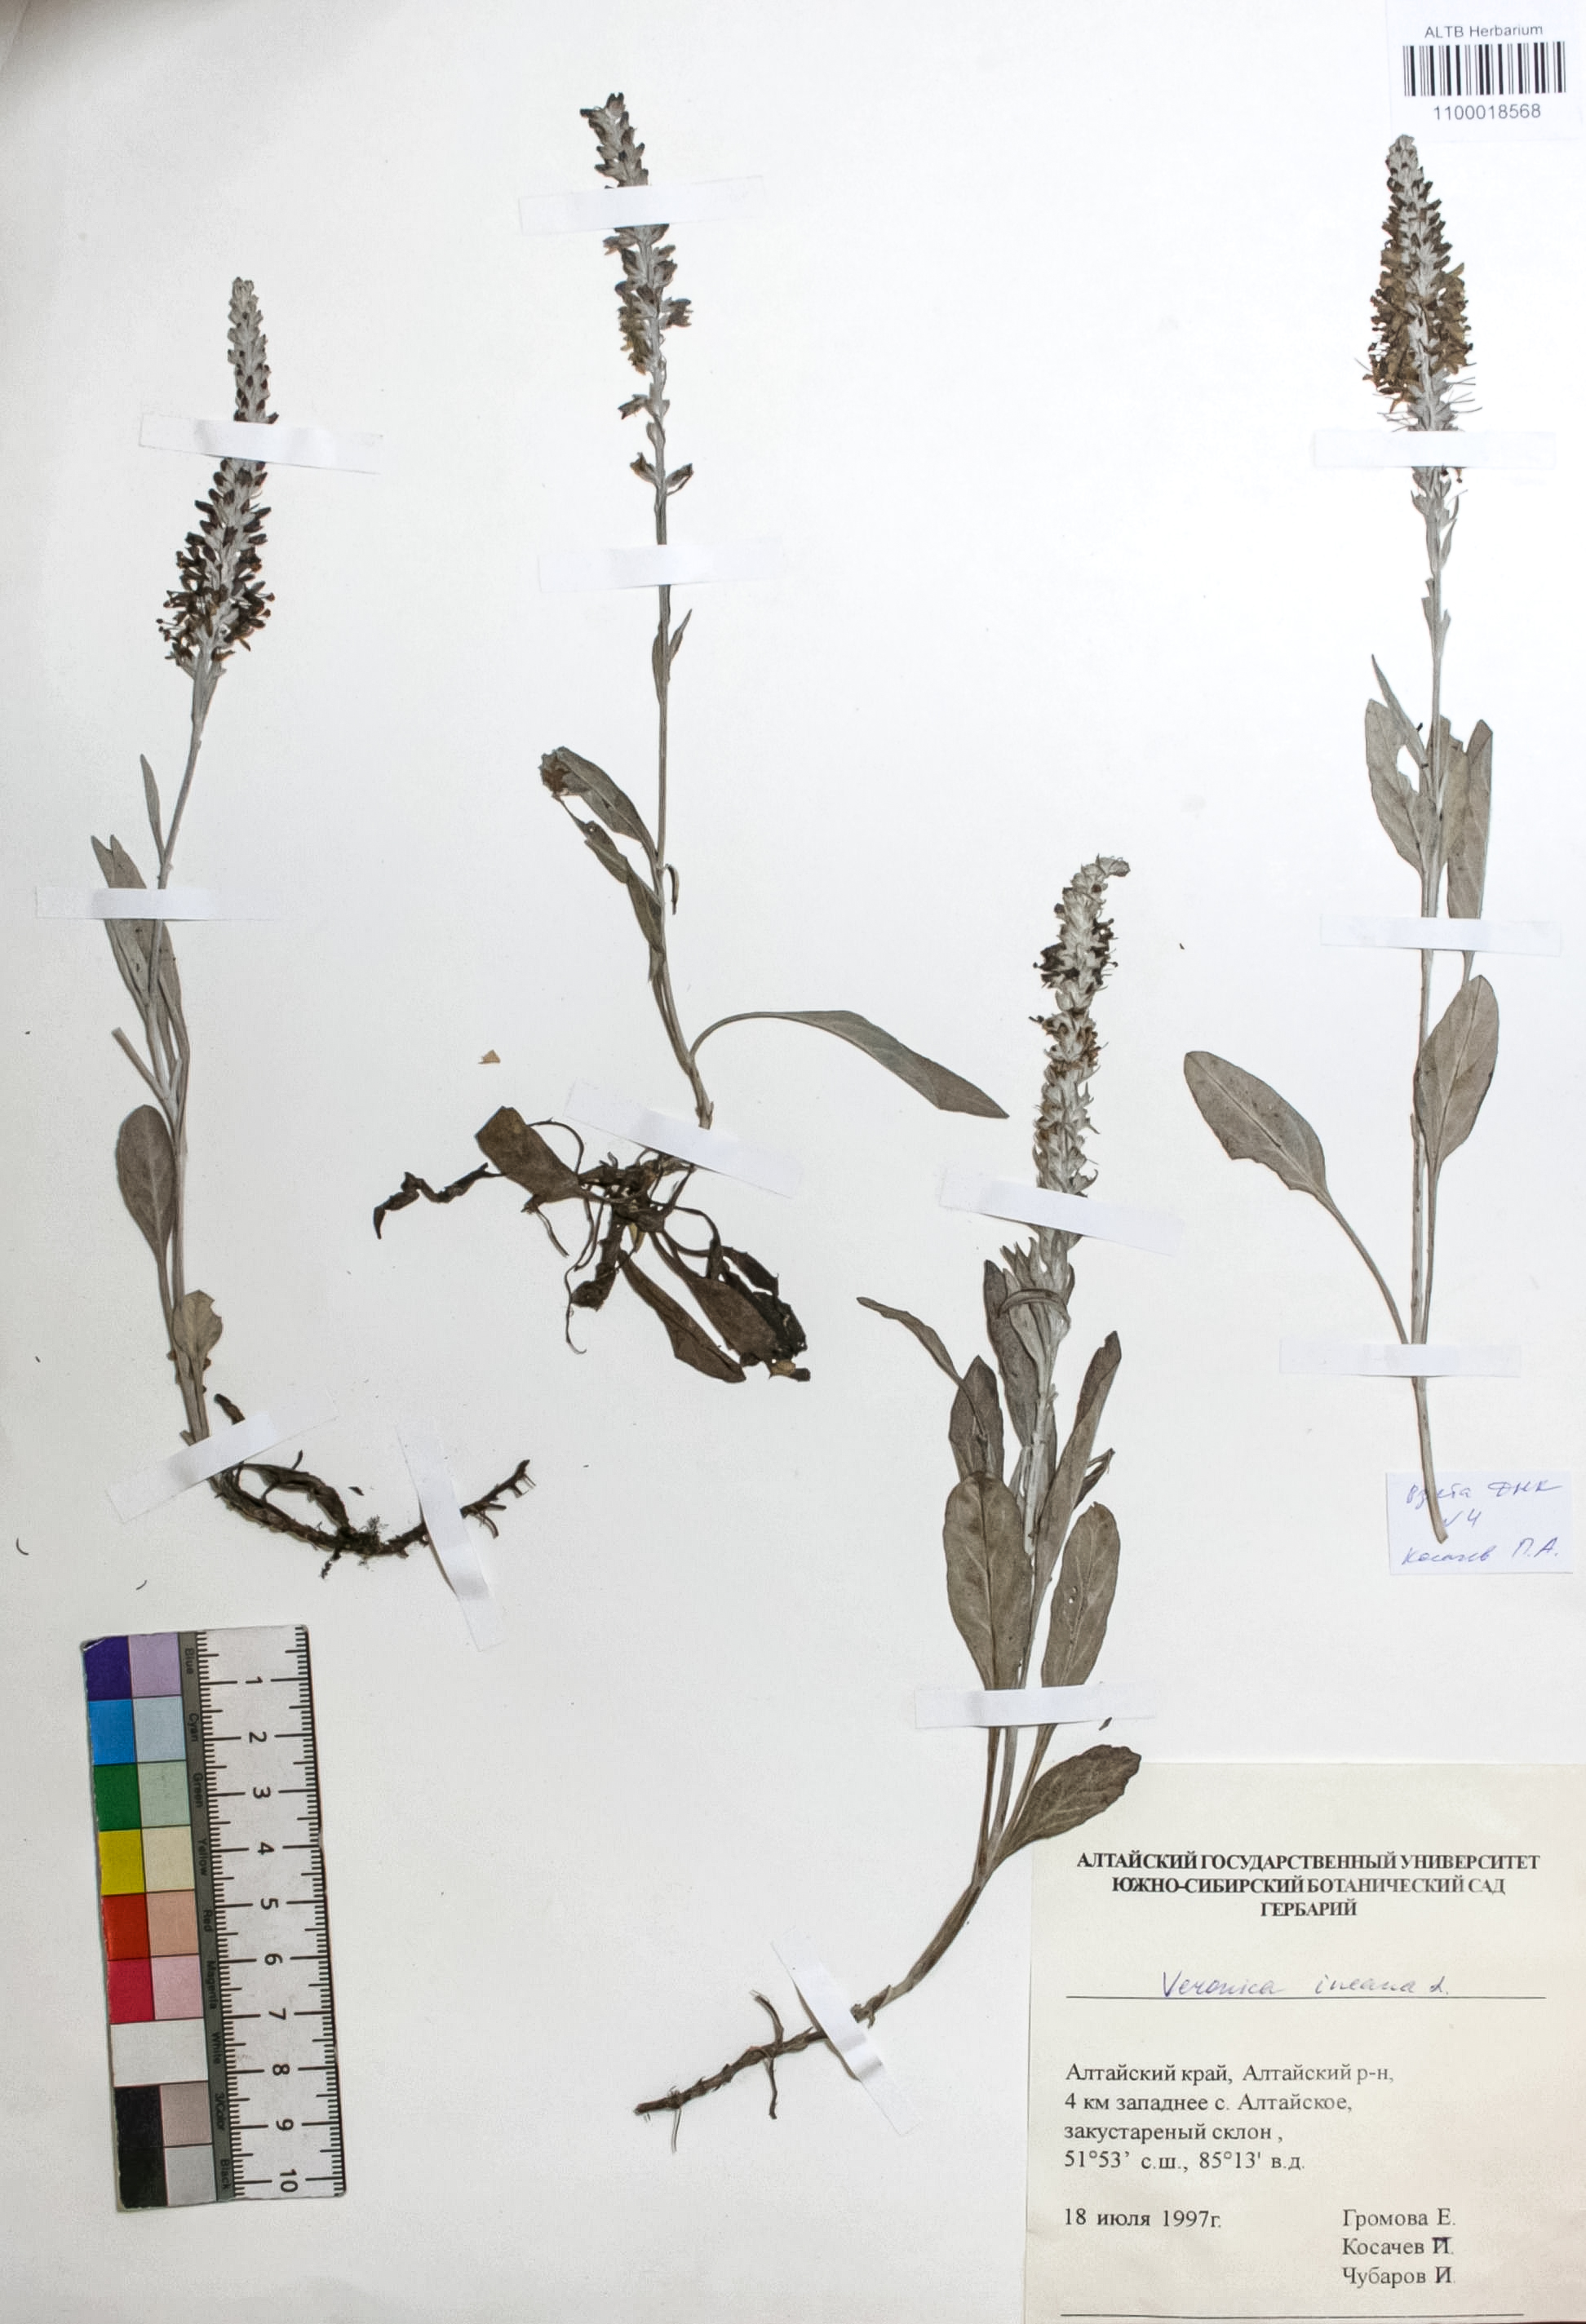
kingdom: Plantae
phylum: Tracheophyta
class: Magnoliopsida
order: Lamiales
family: Plantaginaceae
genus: Veronica
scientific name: Veronica incana
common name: Silver speedwell
